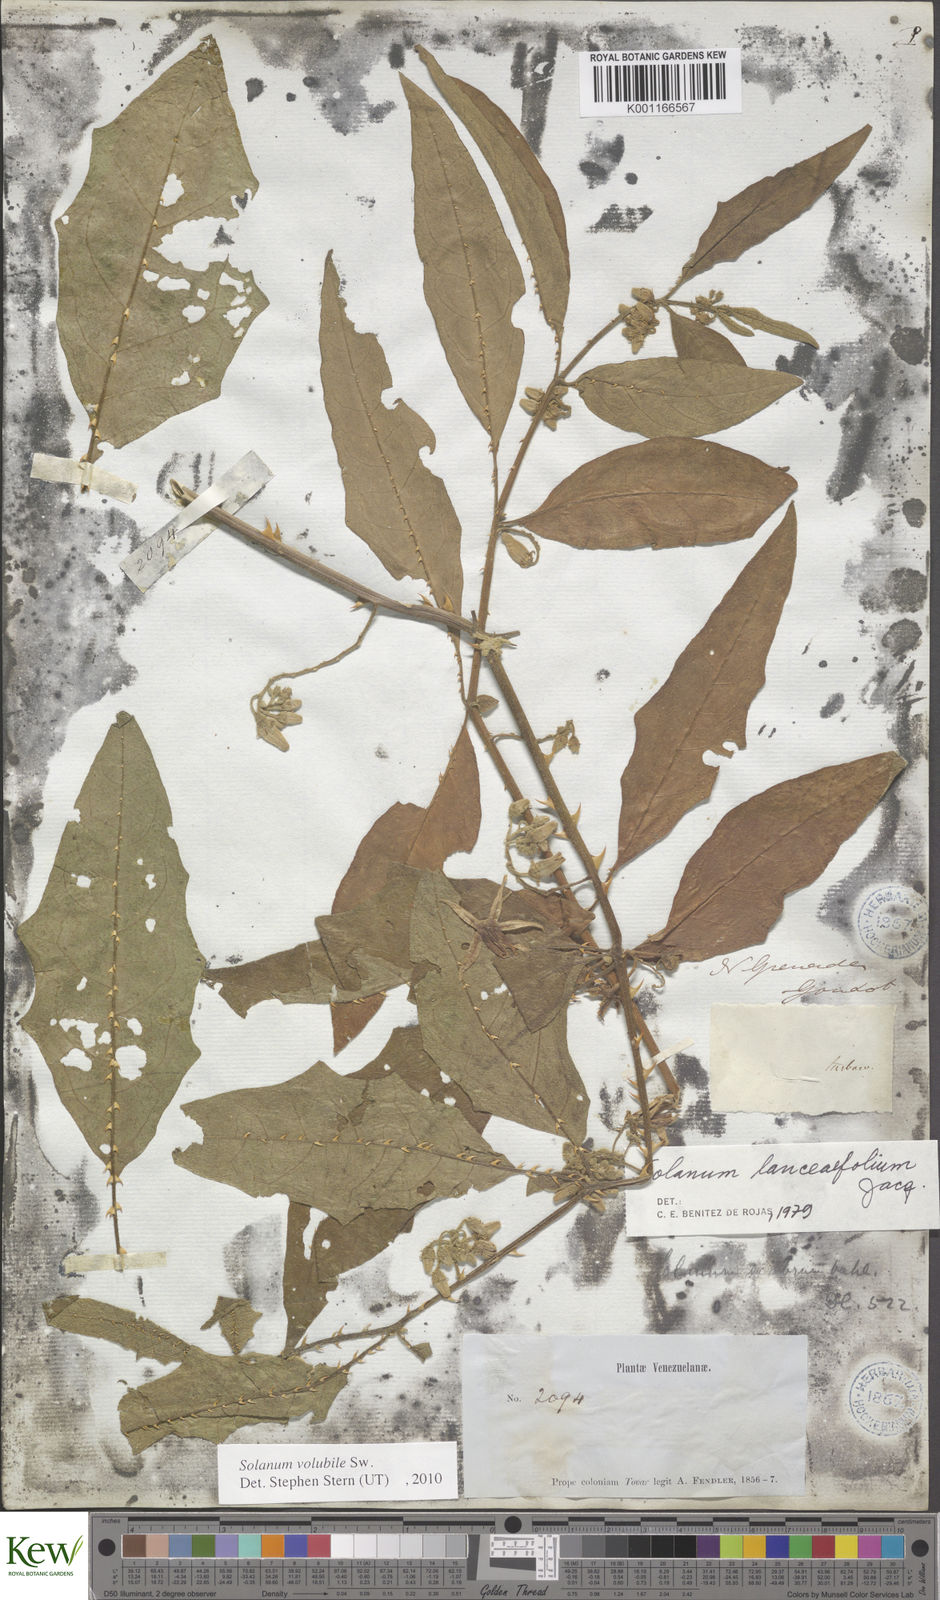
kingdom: Plantae
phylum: Tracheophyta
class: Magnoliopsida
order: Solanales
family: Solanaceae
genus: Solanum
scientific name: Solanum volubile
